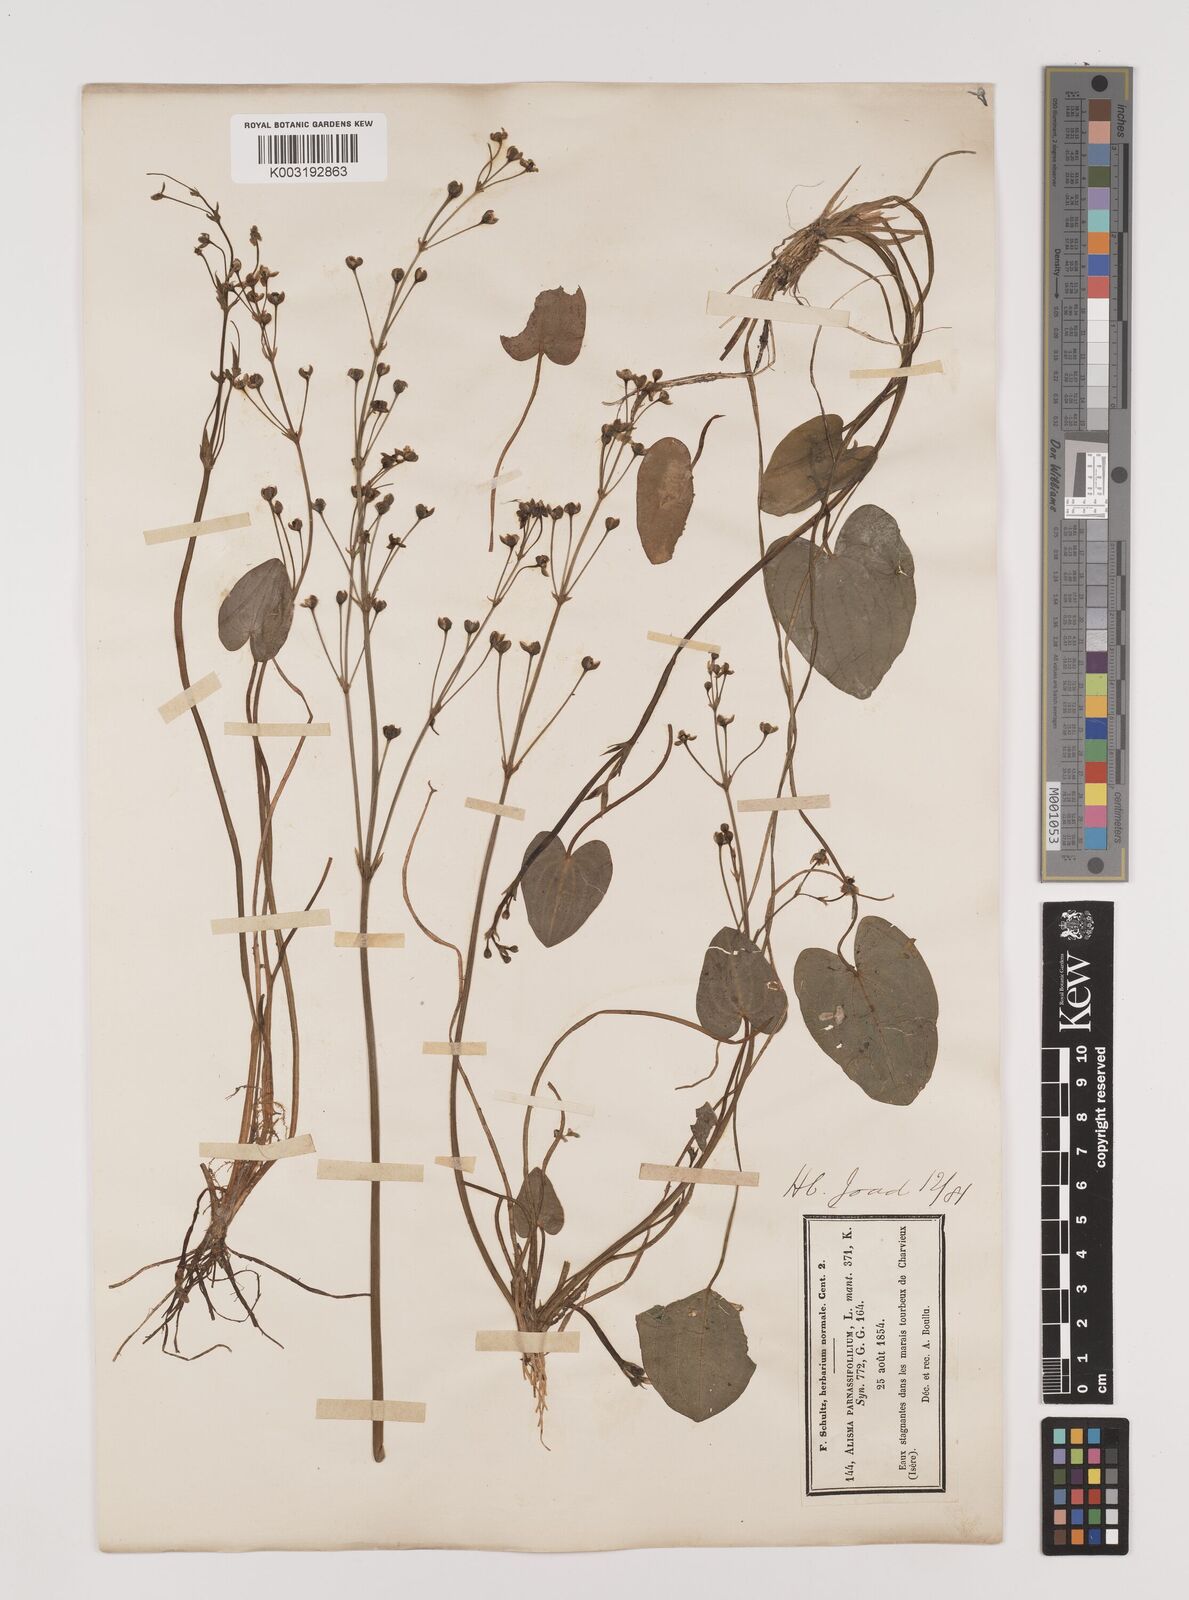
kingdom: Plantae
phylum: Tracheophyta
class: Liliopsida
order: Alismatales
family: Alismataceae
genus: Caldesia
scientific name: Caldesia parnassifolia
